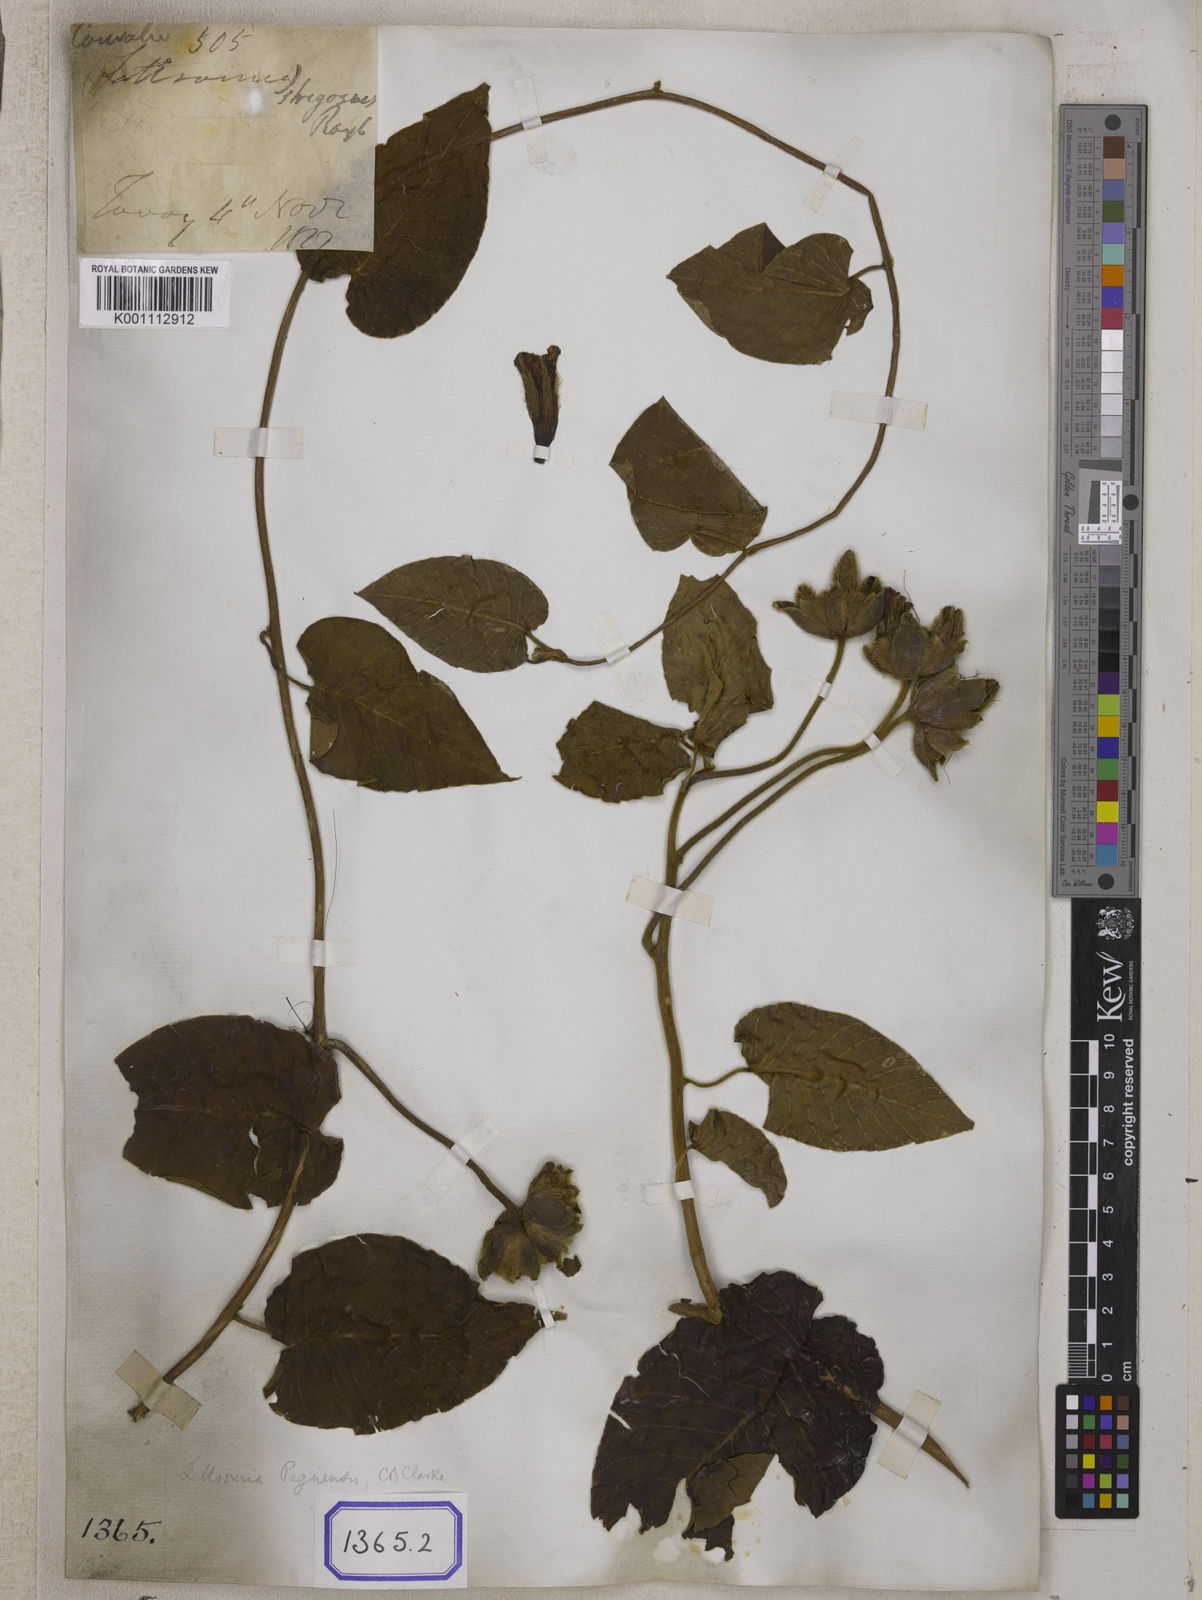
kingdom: Plantae
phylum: Tracheophyta
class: Magnoliopsida
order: Solanales
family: Convolvulaceae
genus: Convolvulus
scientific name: Convolvulus
